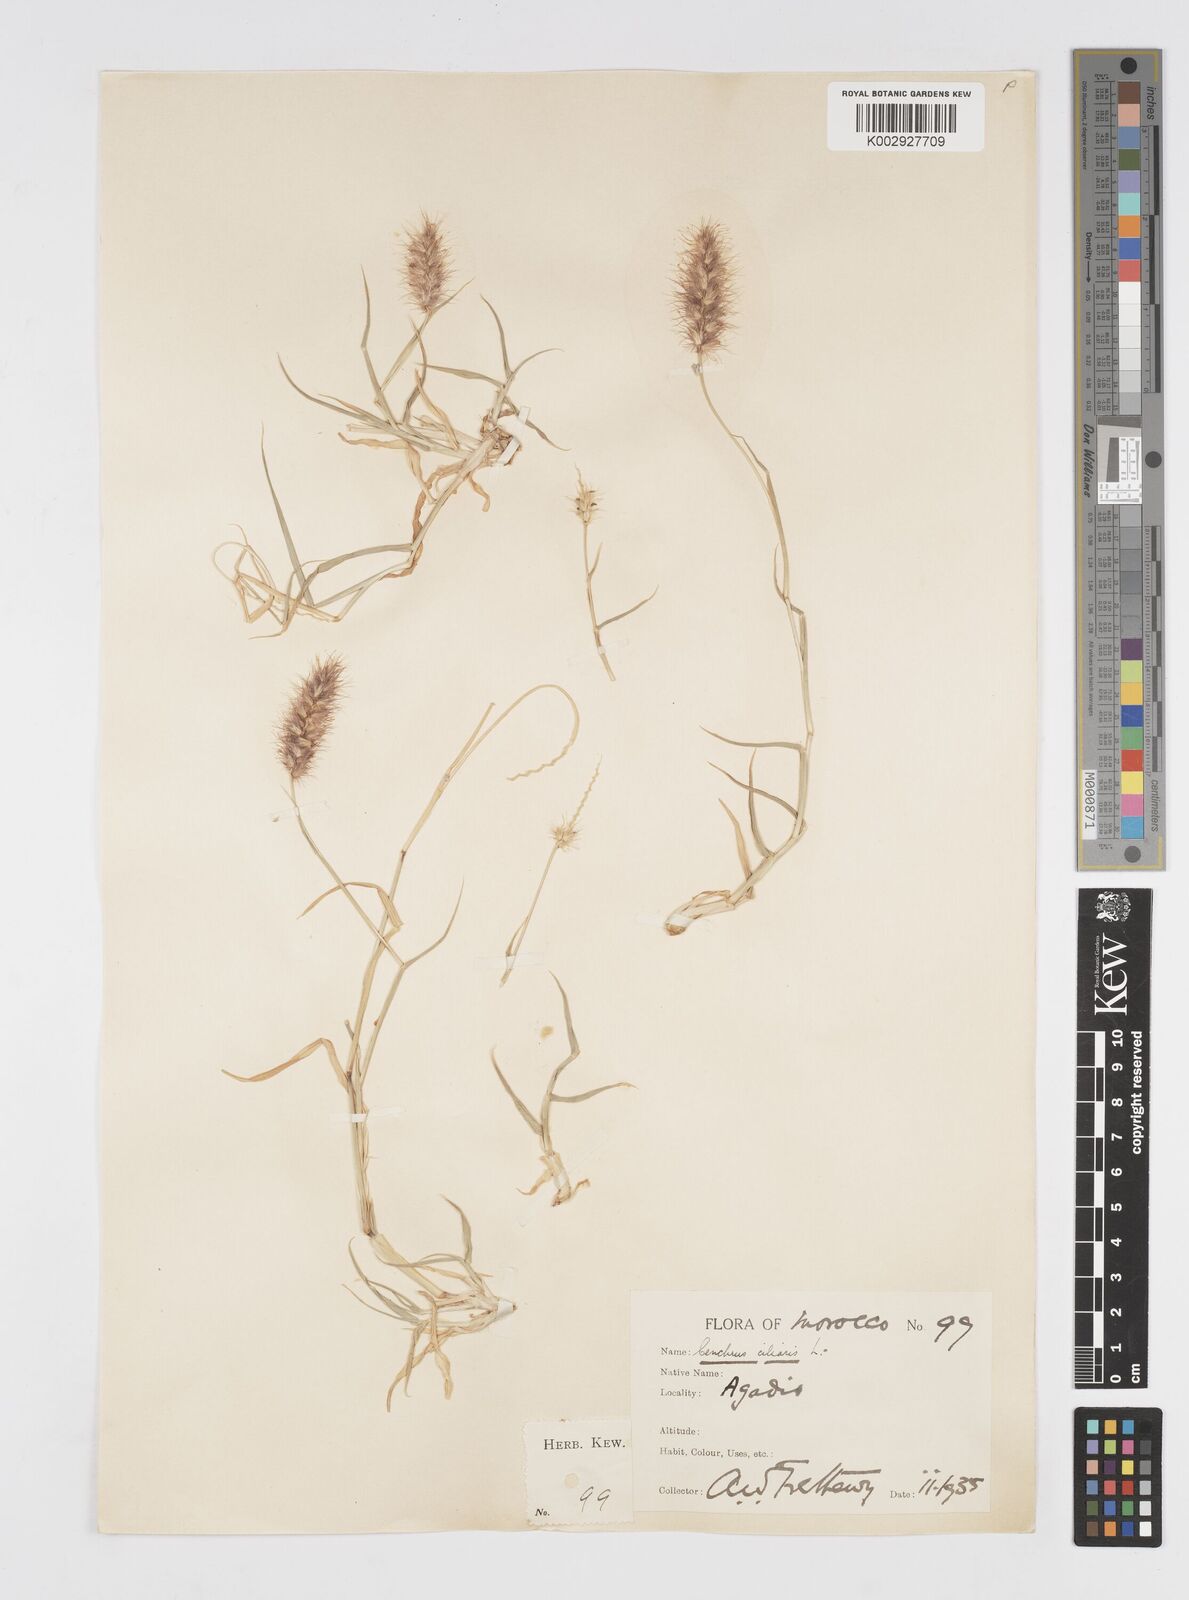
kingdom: Plantae
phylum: Tracheophyta
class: Liliopsida
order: Poales
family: Poaceae
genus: Cenchrus
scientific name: Cenchrus ciliaris
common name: Buffelgrass
